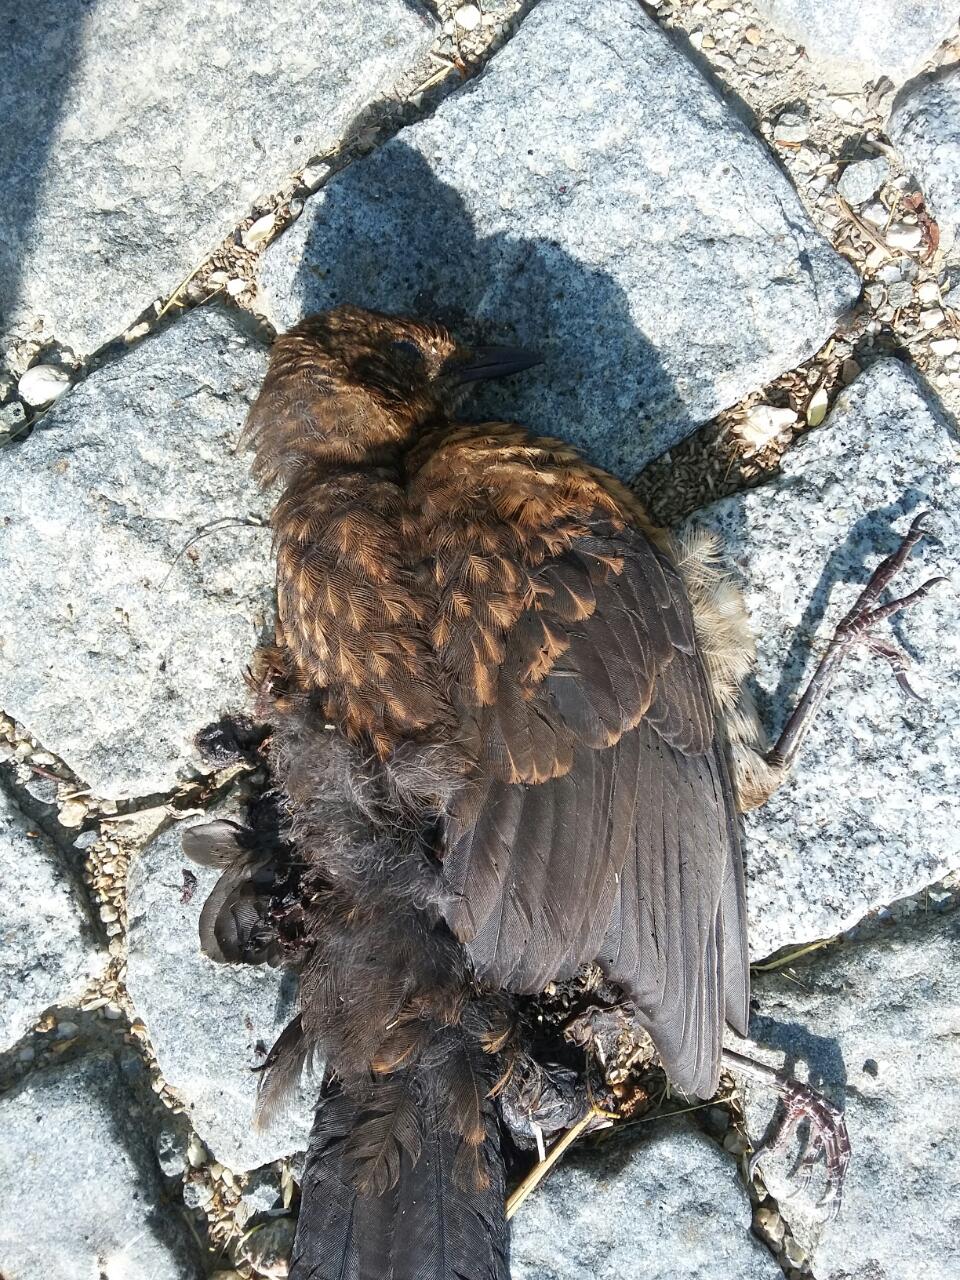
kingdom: Animalia
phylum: Chordata
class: Aves
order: Passeriformes
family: Turdidae
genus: Turdus
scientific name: Turdus merula
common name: Common blackbird
